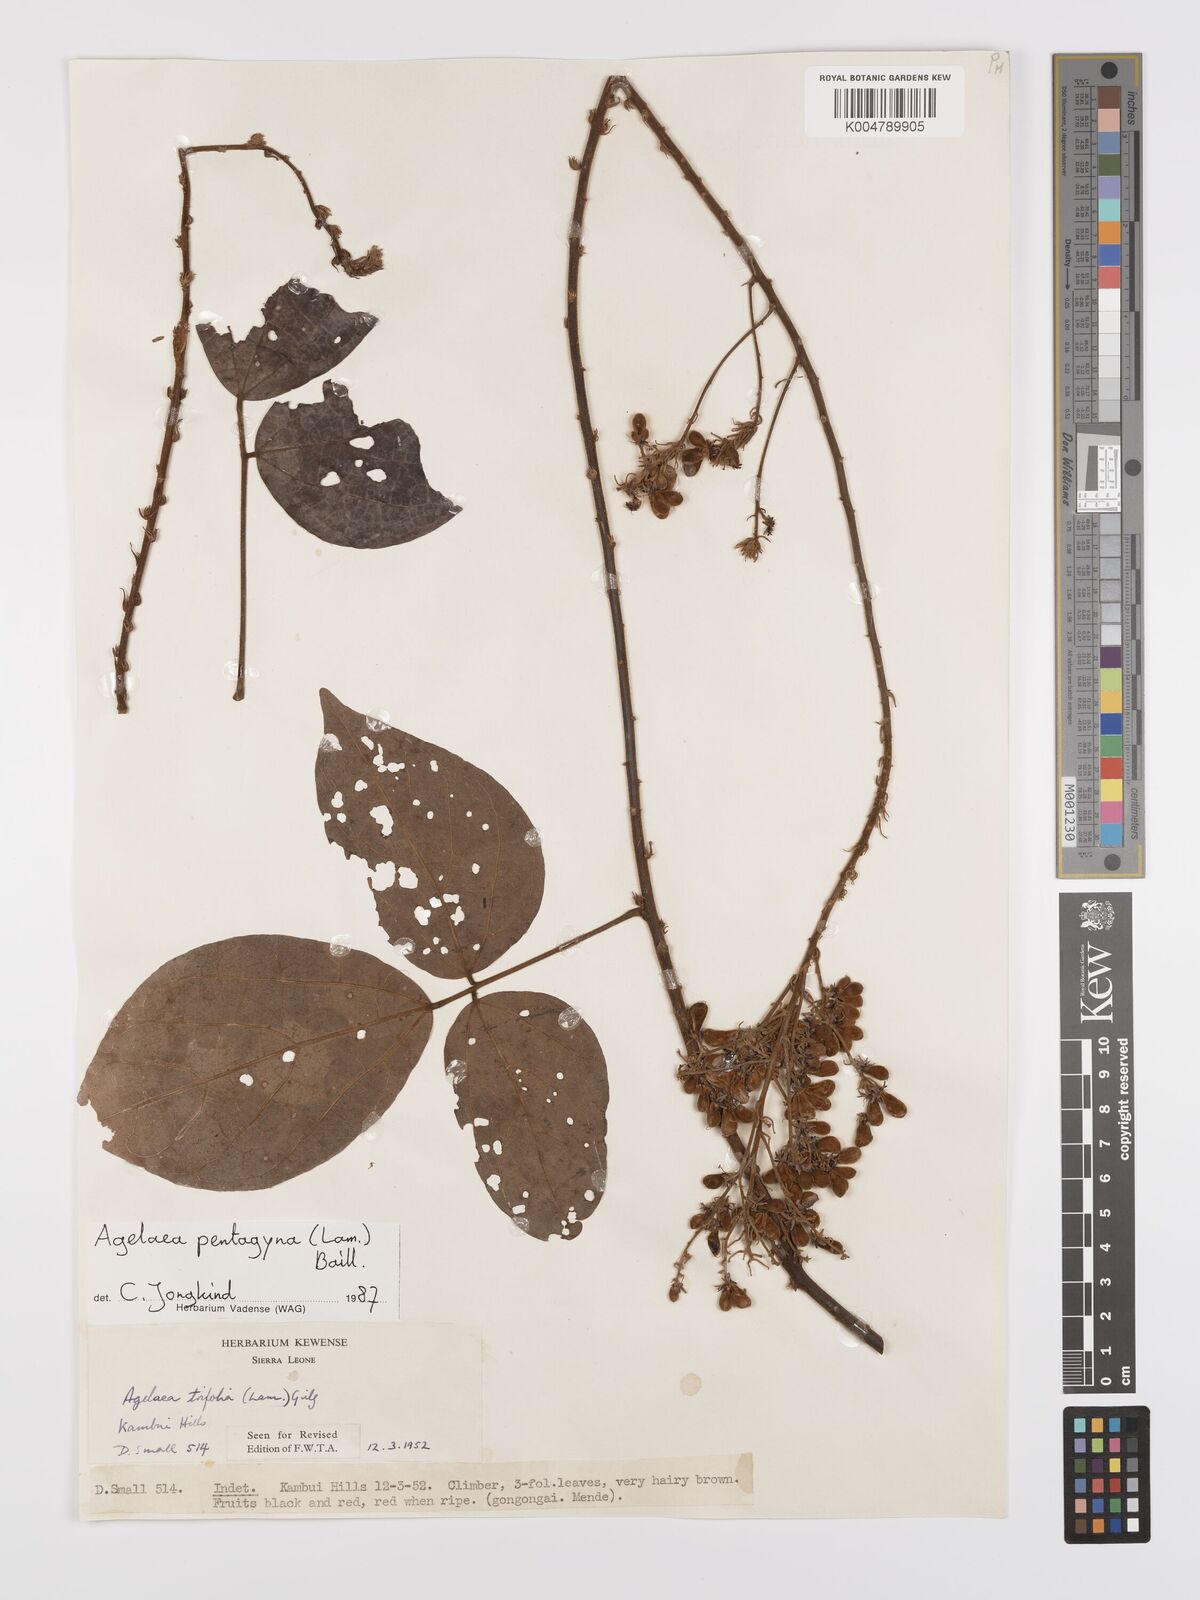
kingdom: Plantae
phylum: Tracheophyta
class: Magnoliopsida
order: Oxalidales
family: Connaraceae
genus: Agelaea
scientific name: Agelaea pentagyna
